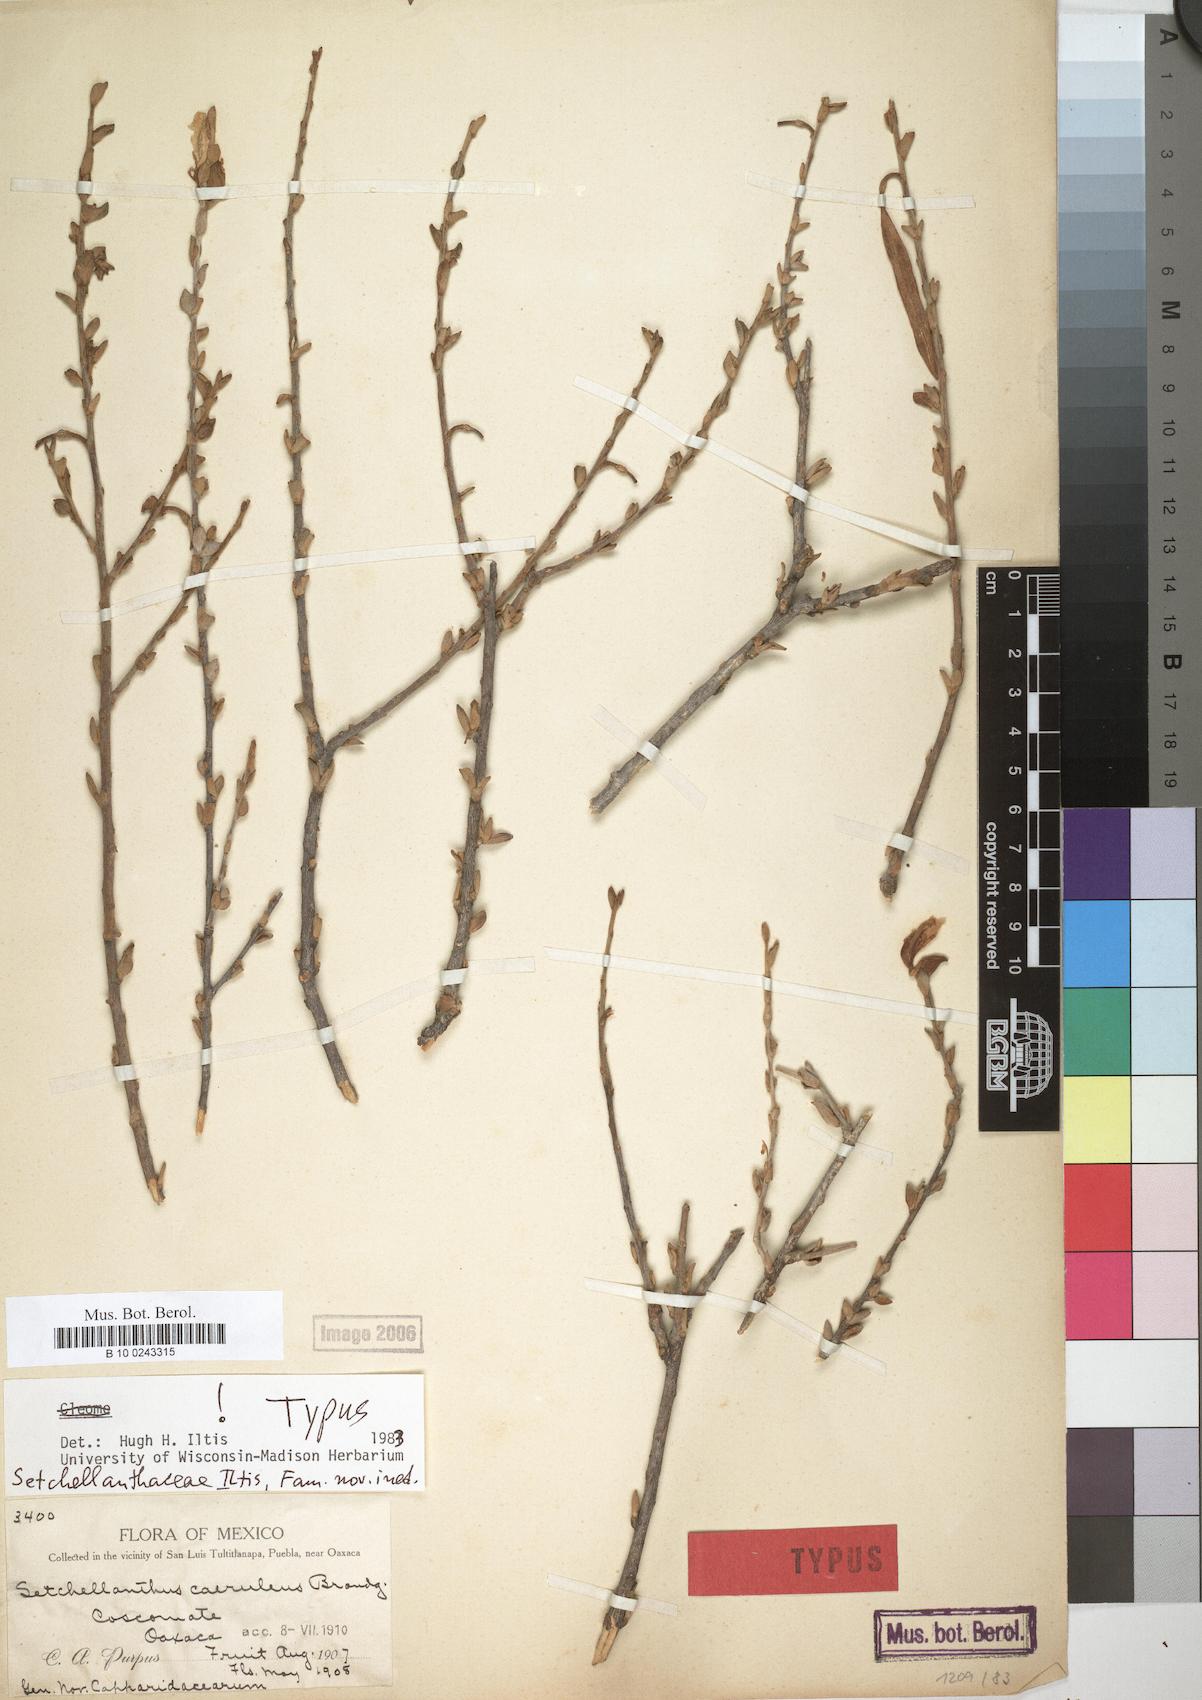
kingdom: Plantae
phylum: Tracheophyta
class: Magnoliopsida
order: Brassicales
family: Setchellanthaceae
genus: Setchellanthus
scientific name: Setchellanthus caeruleus
